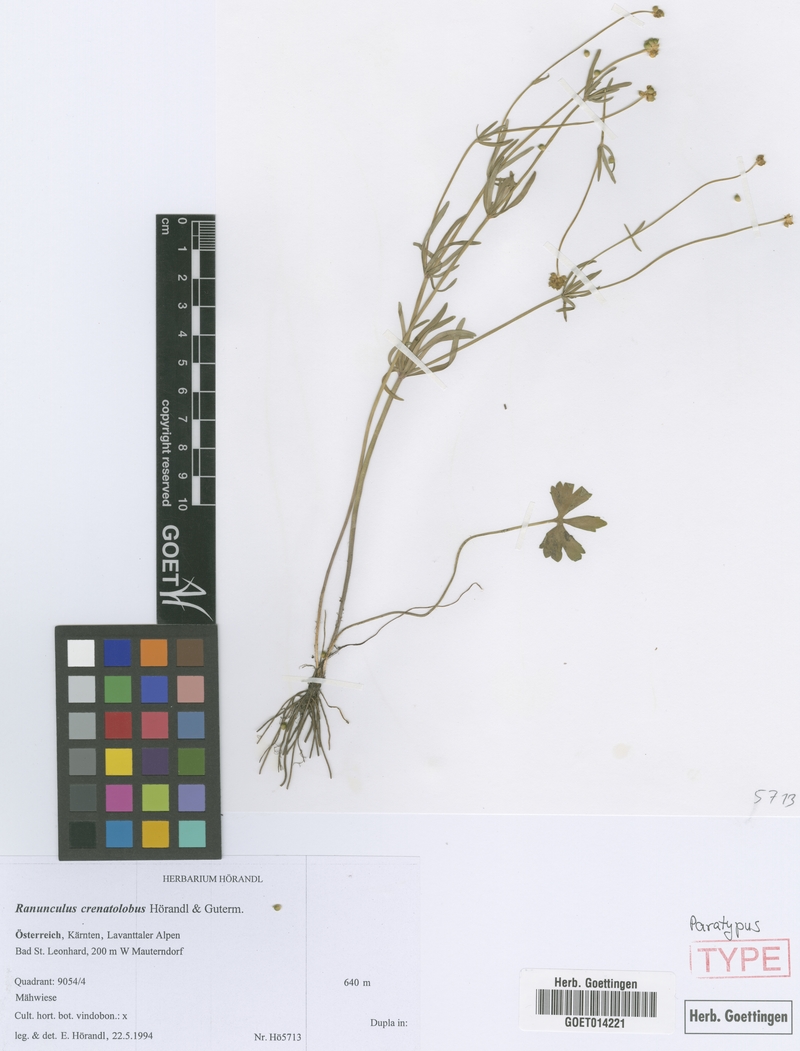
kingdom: Plantae
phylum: Tracheophyta
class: Magnoliopsida
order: Ranunculales
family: Ranunculaceae
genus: Ranunculus
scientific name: Ranunculus crenatolobus
